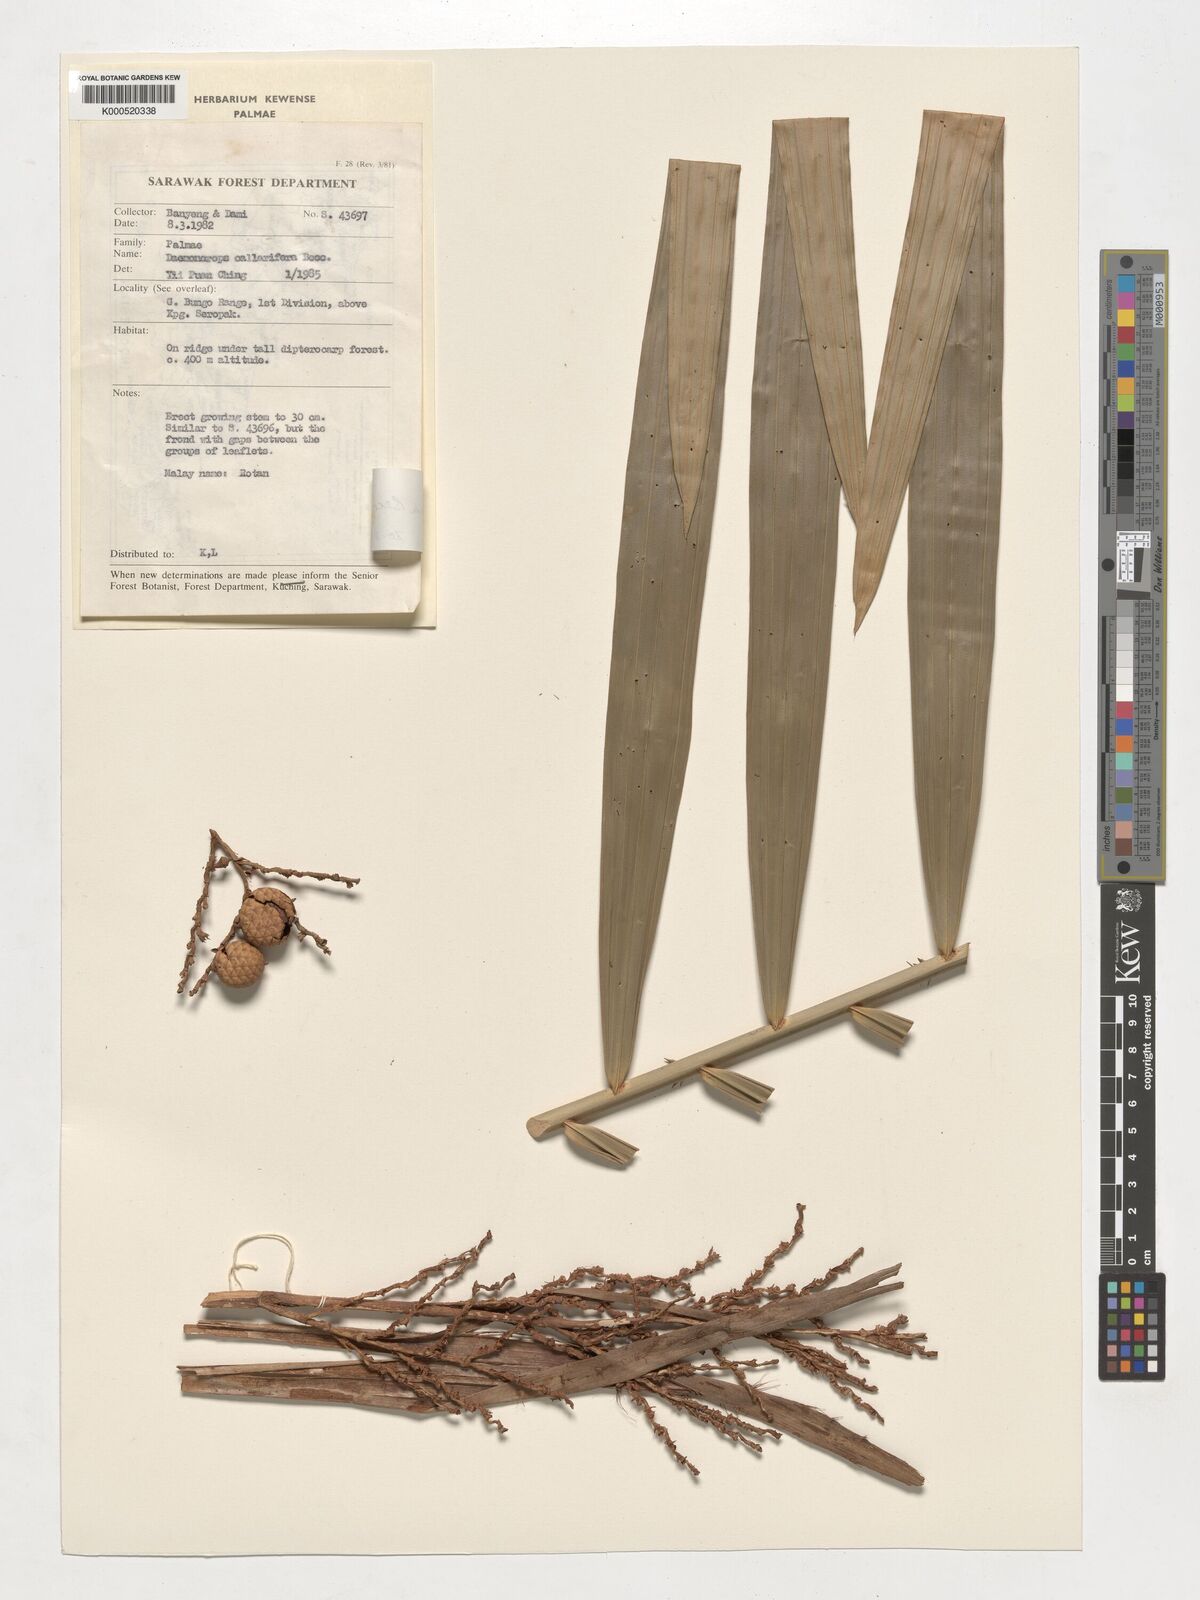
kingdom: Plantae
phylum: Tracheophyta
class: Liliopsida
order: Arecales
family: Arecaceae
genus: Calamus
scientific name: Calamus geniculatus
